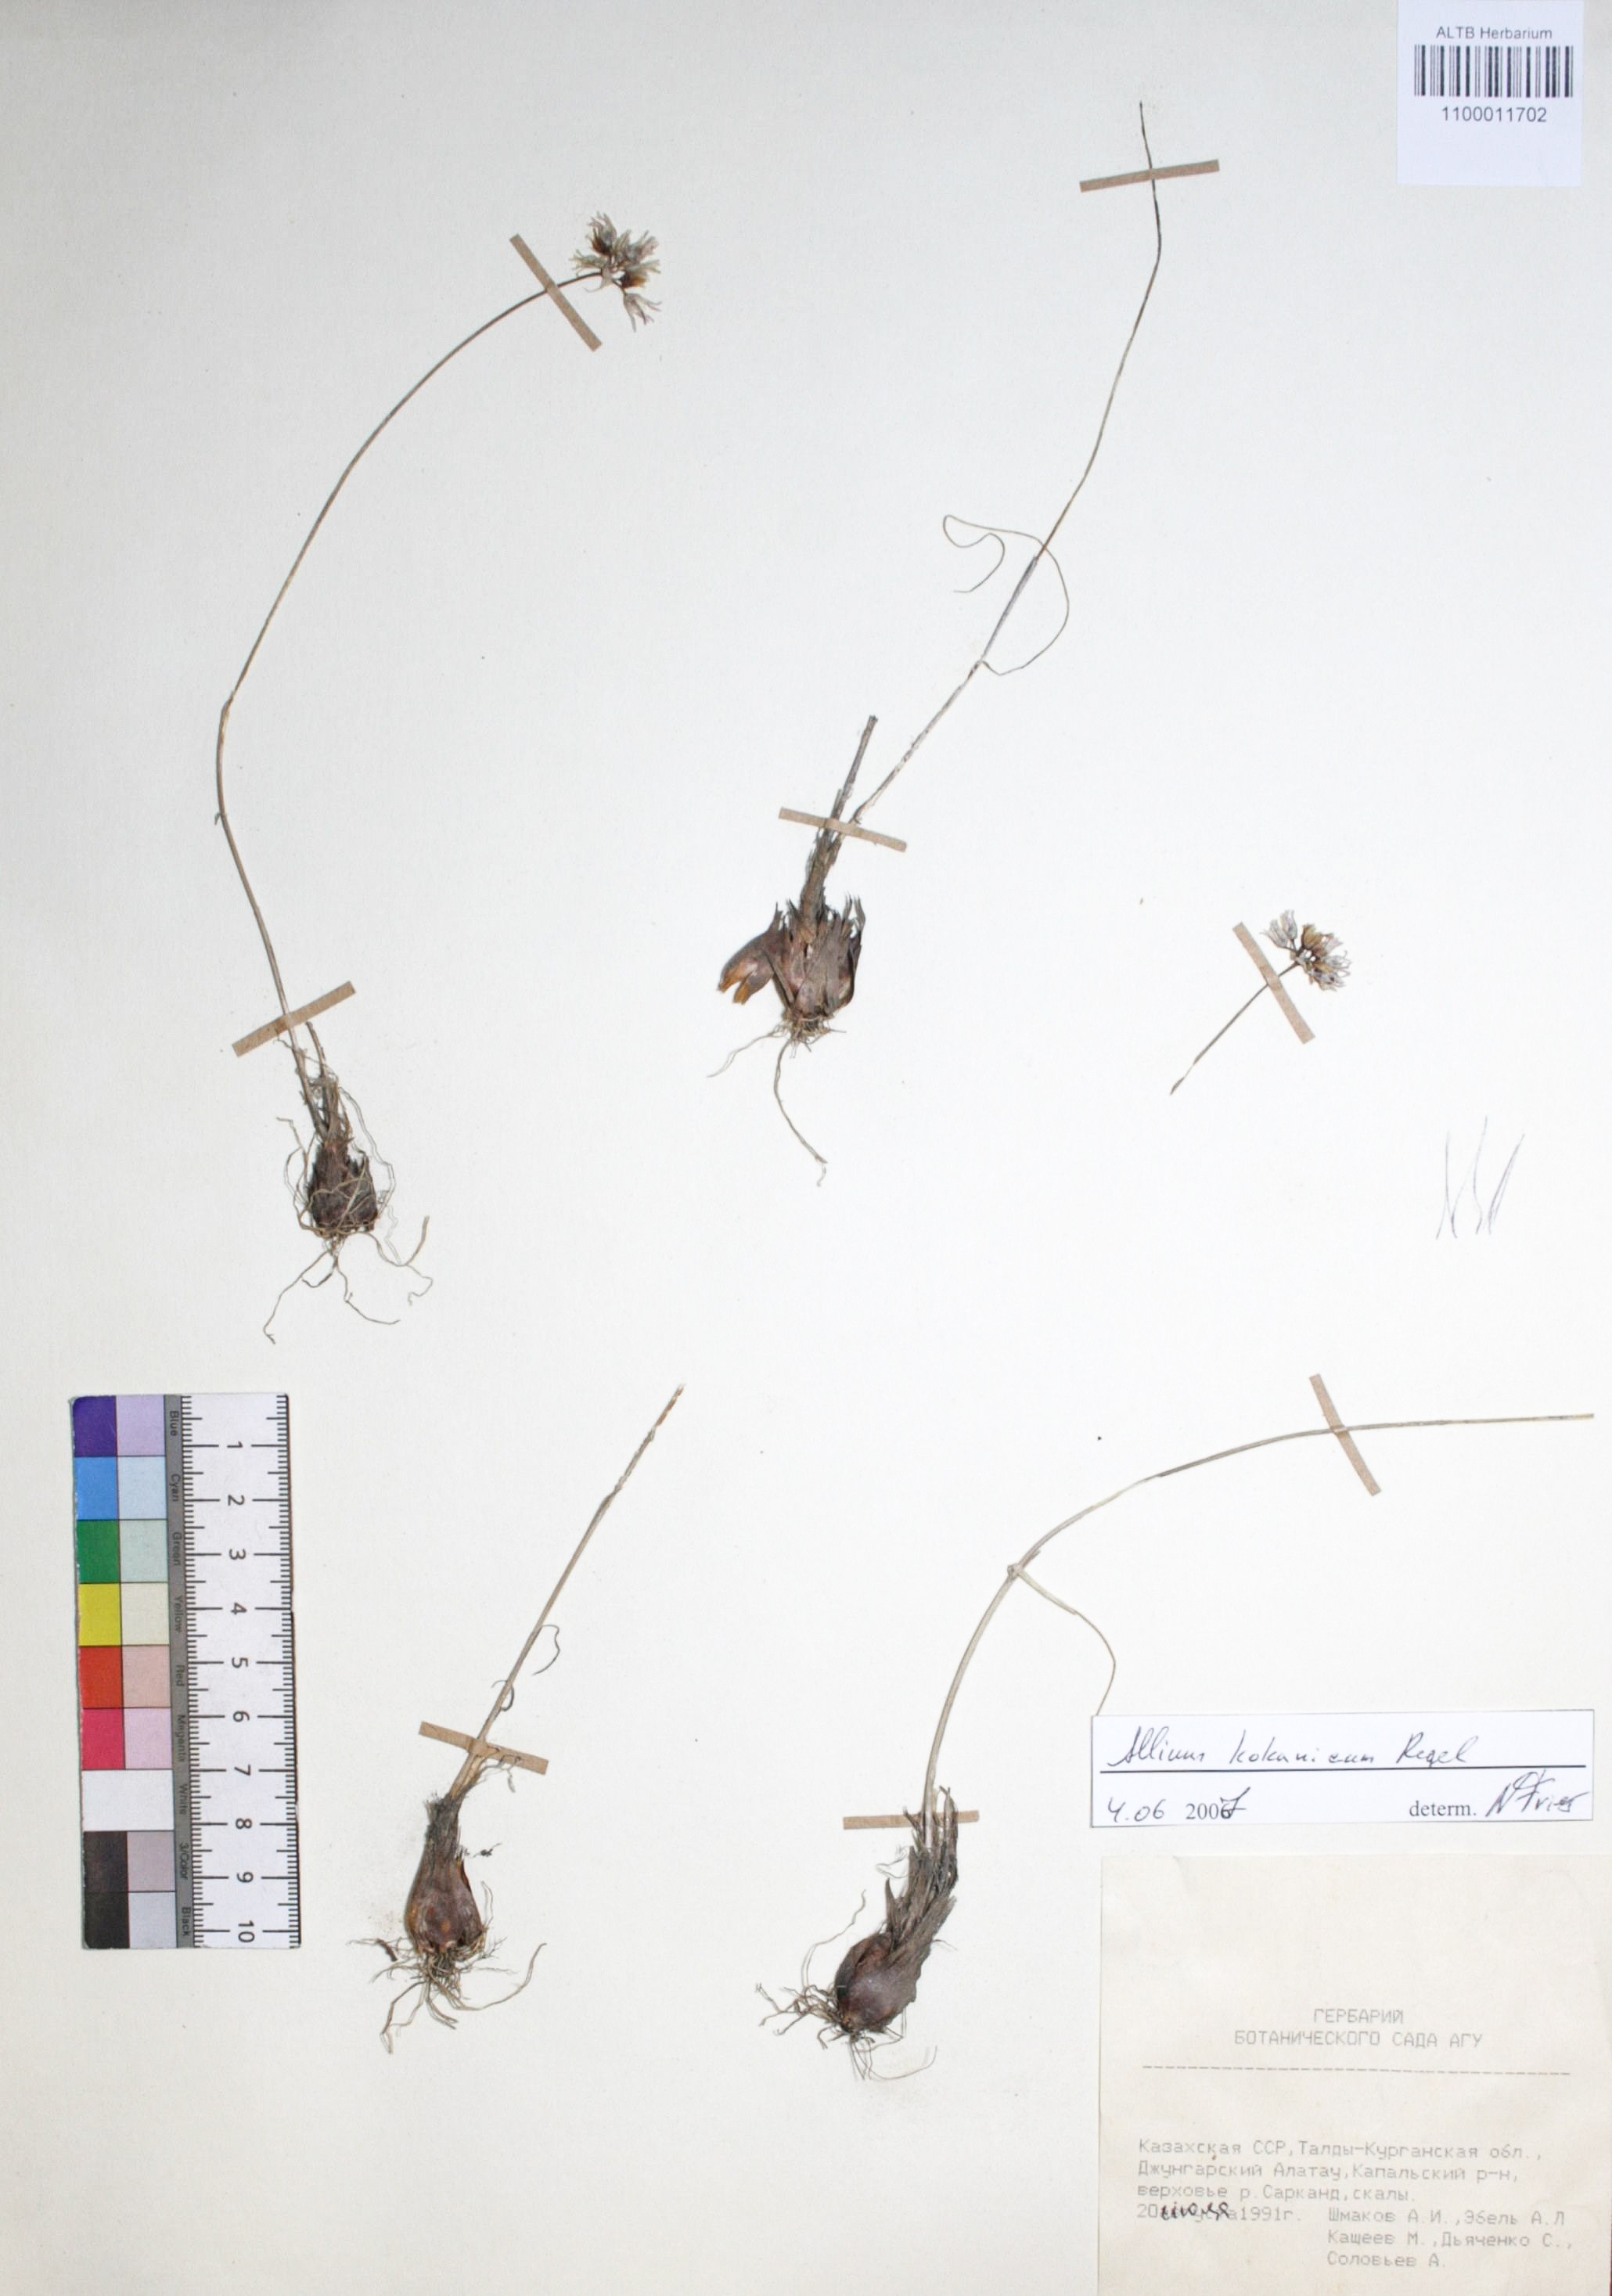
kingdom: Plantae
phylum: Tracheophyta
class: Liliopsida
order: Asparagales
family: Amaryllidaceae
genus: Allium
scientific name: Allium kokanicum
